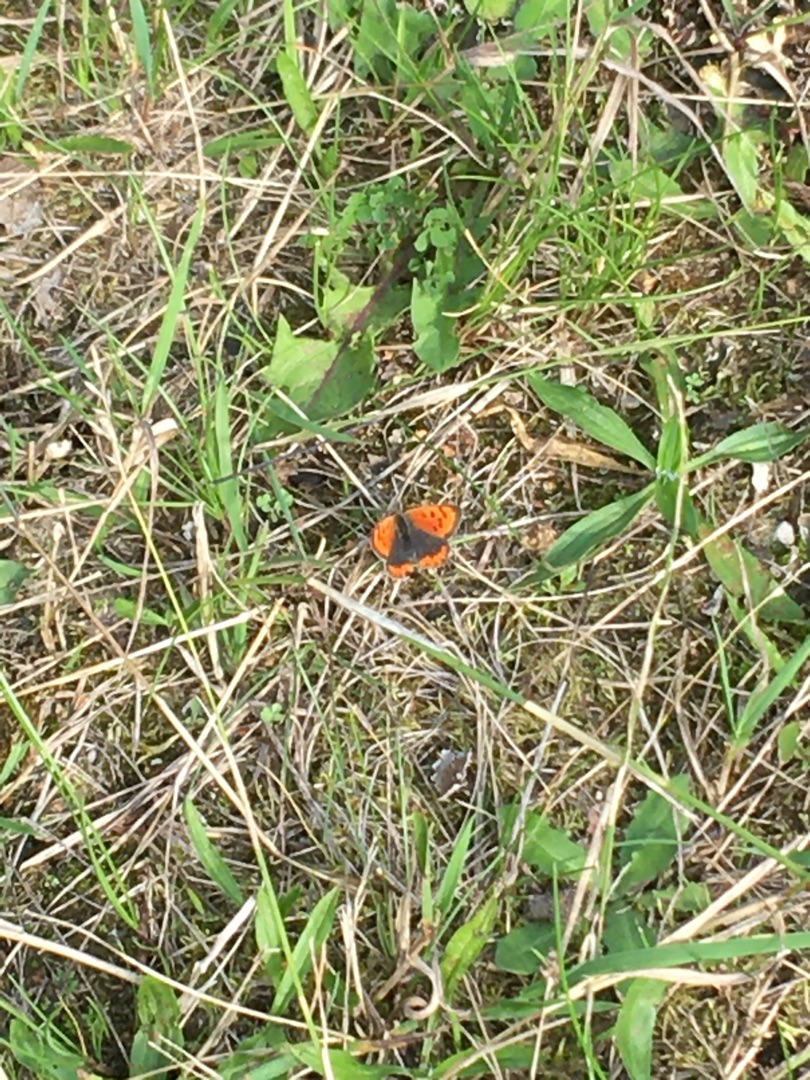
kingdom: Animalia
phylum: Arthropoda
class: Insecta
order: Lepidoptera
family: Lycaenidae
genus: Lycaena
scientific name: Lycaena phlaeas
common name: Lille ildfugl
